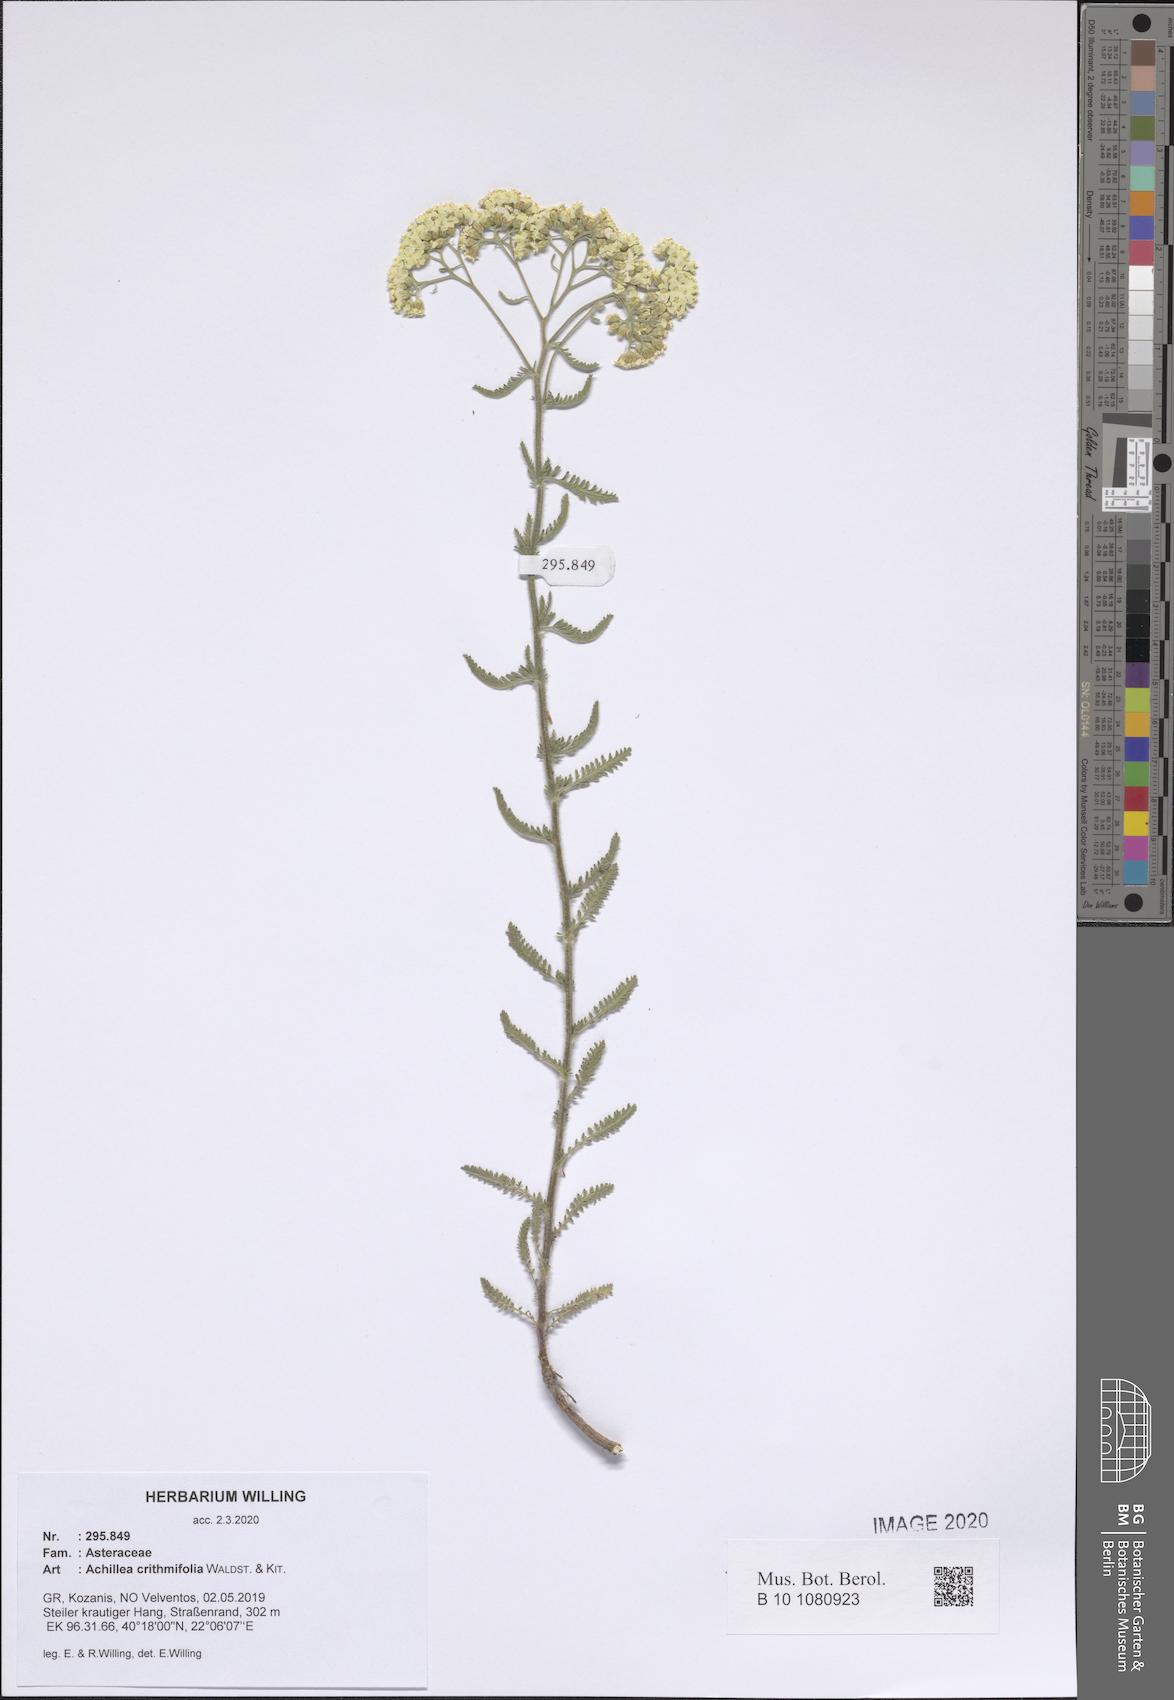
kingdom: Plantae
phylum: Tracheophyta
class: Magnoliopsida
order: Asterales
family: Asteraceae
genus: Achillea
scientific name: Achillea crithmifolia
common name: Yarrow
